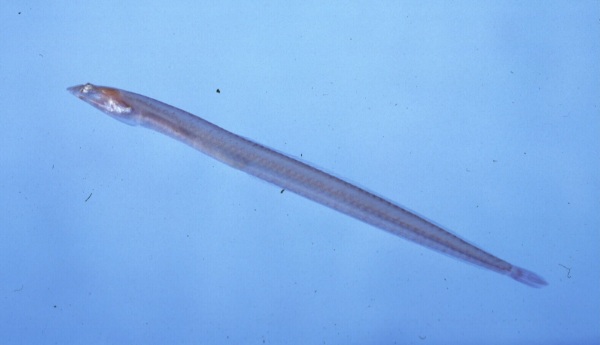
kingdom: Animalia
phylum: Chordata
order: Perciformes
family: Creediidae
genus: Apodocreedia
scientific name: Apodocreedia vanderhorsti
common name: Longfin burrower
